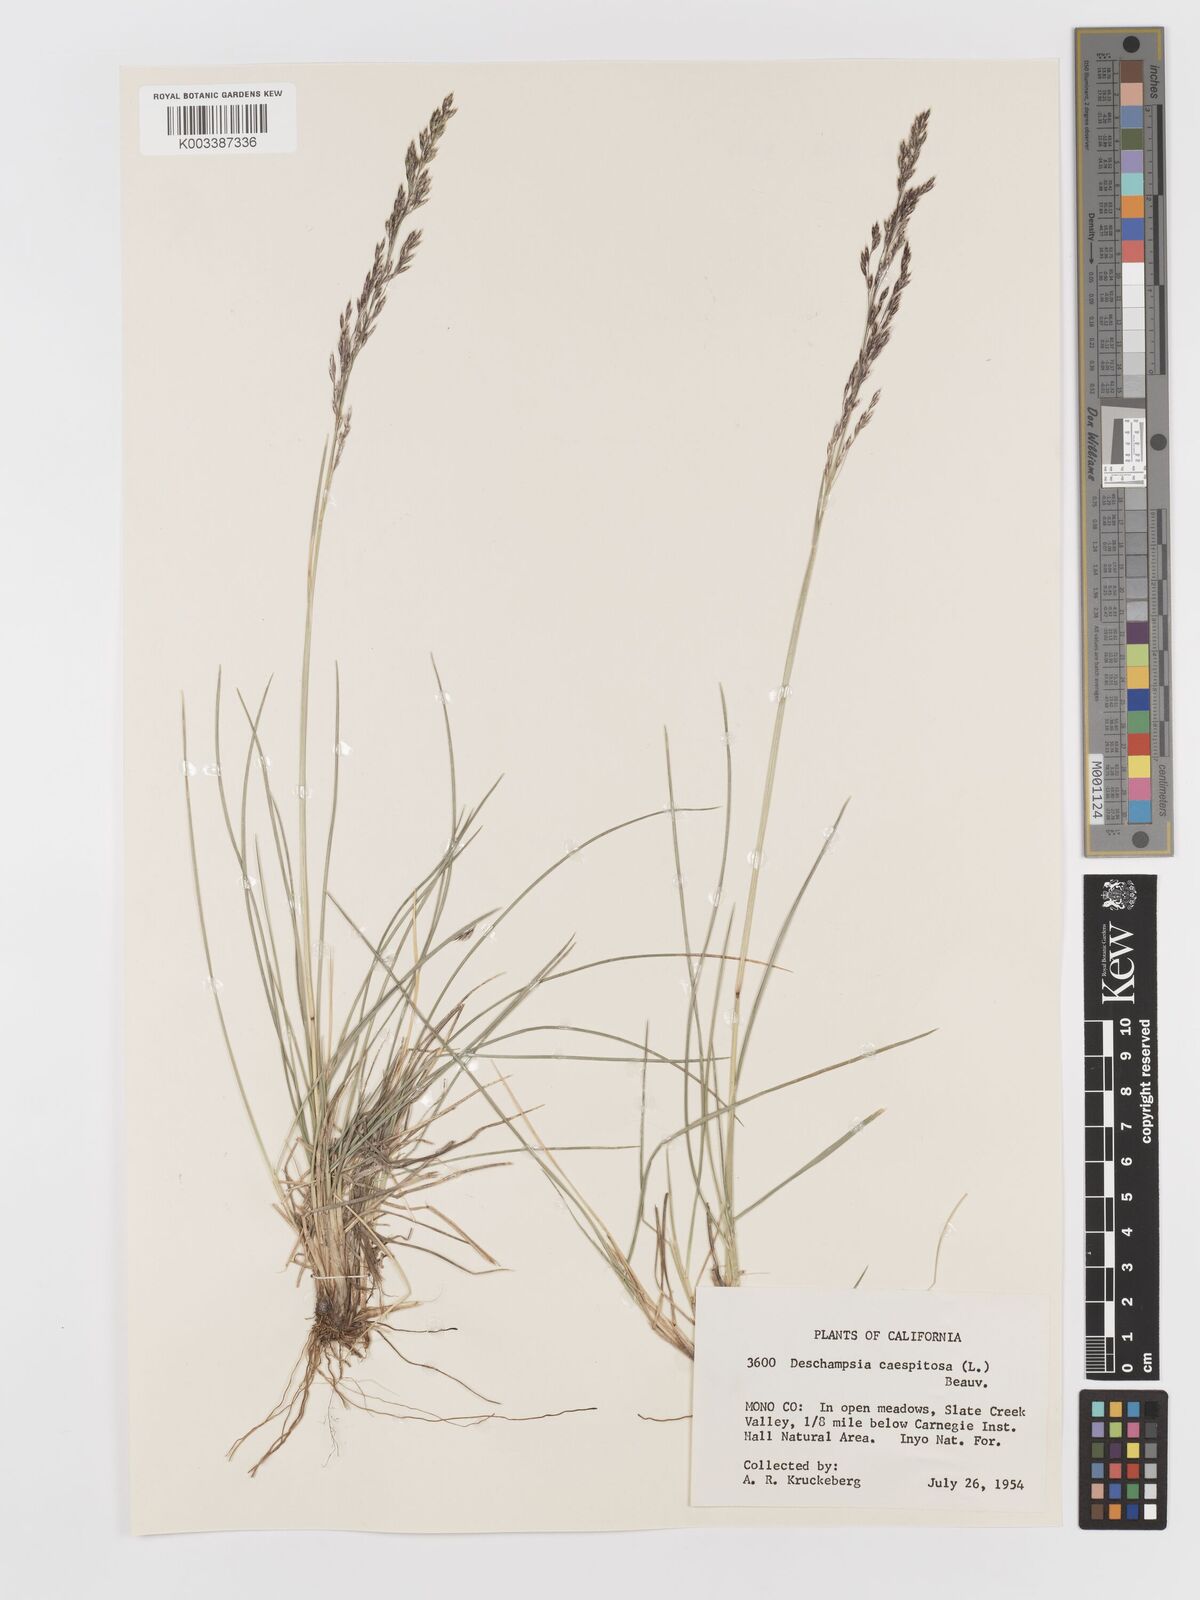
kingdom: Plantae
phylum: Tracheophyta
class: Liliopsida
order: Poales
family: Poaceae
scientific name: Poaceae
